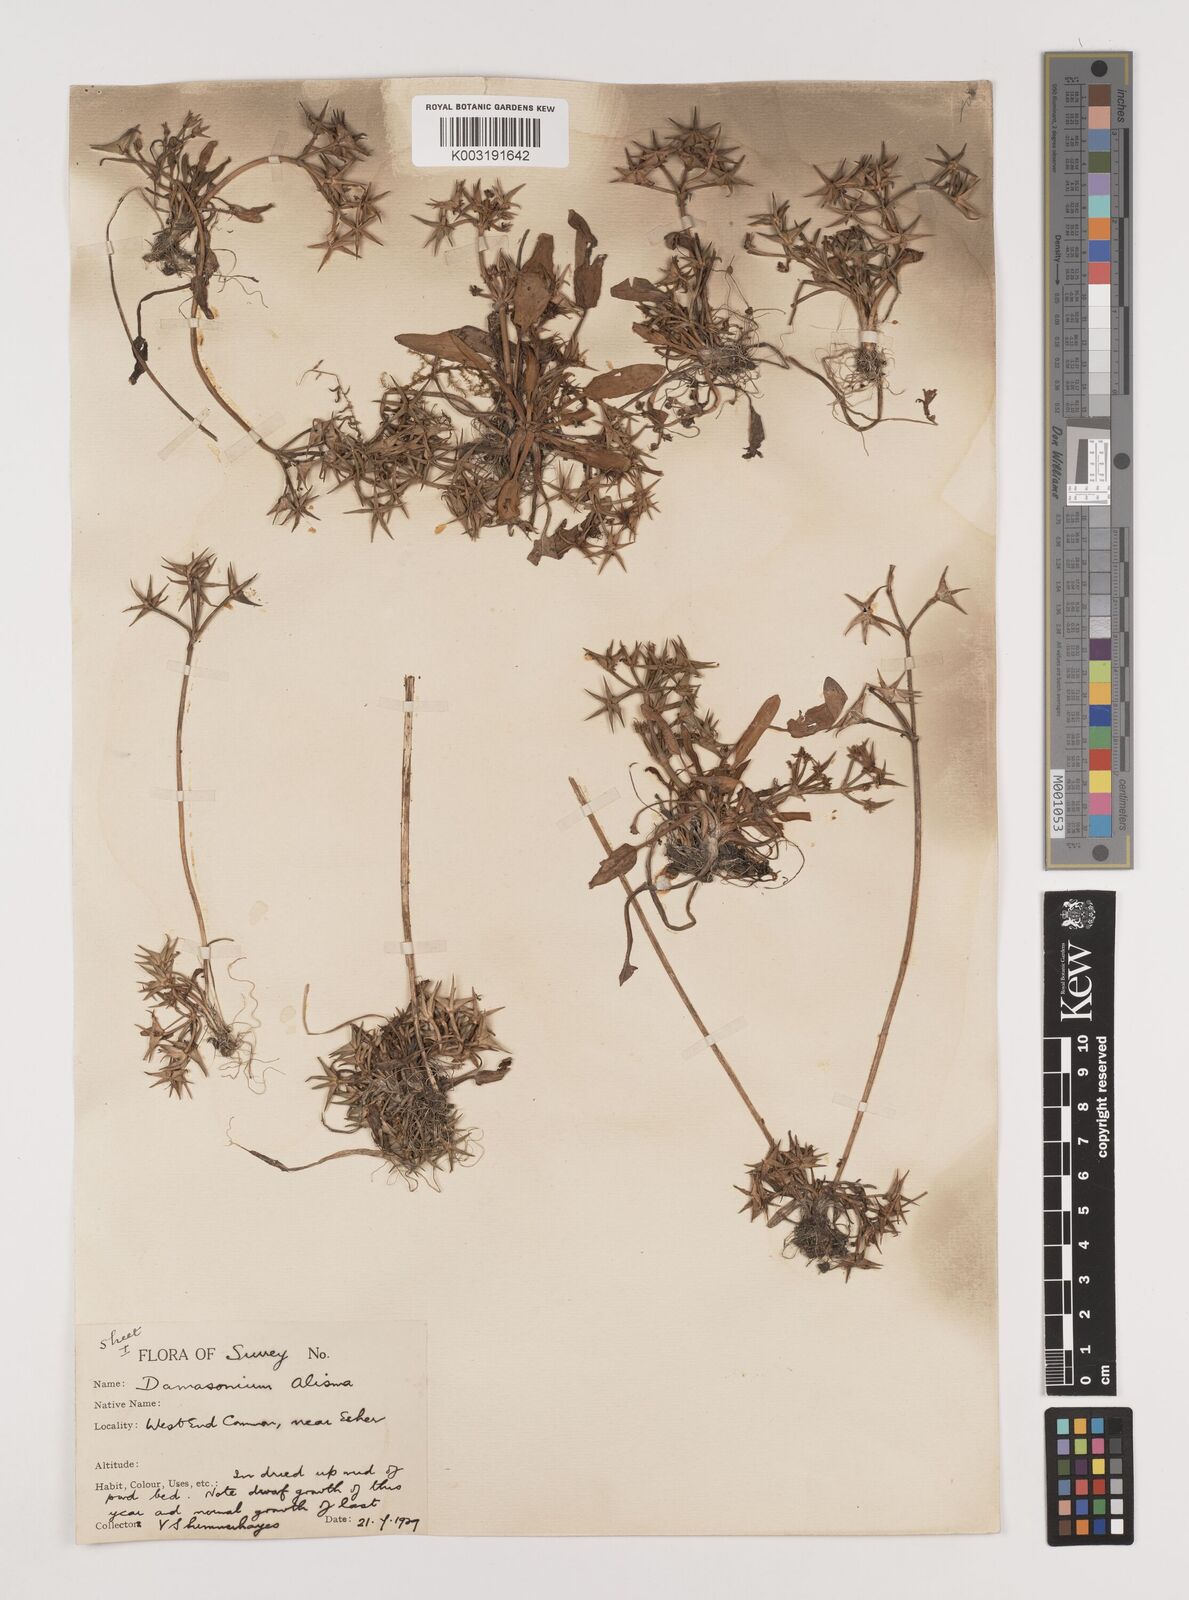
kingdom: Plantae
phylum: Tracheophyta
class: Liliopsida
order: Alismatales
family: Alismataceae
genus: Damasonium
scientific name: Damasonium alisma
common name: Starfruit
